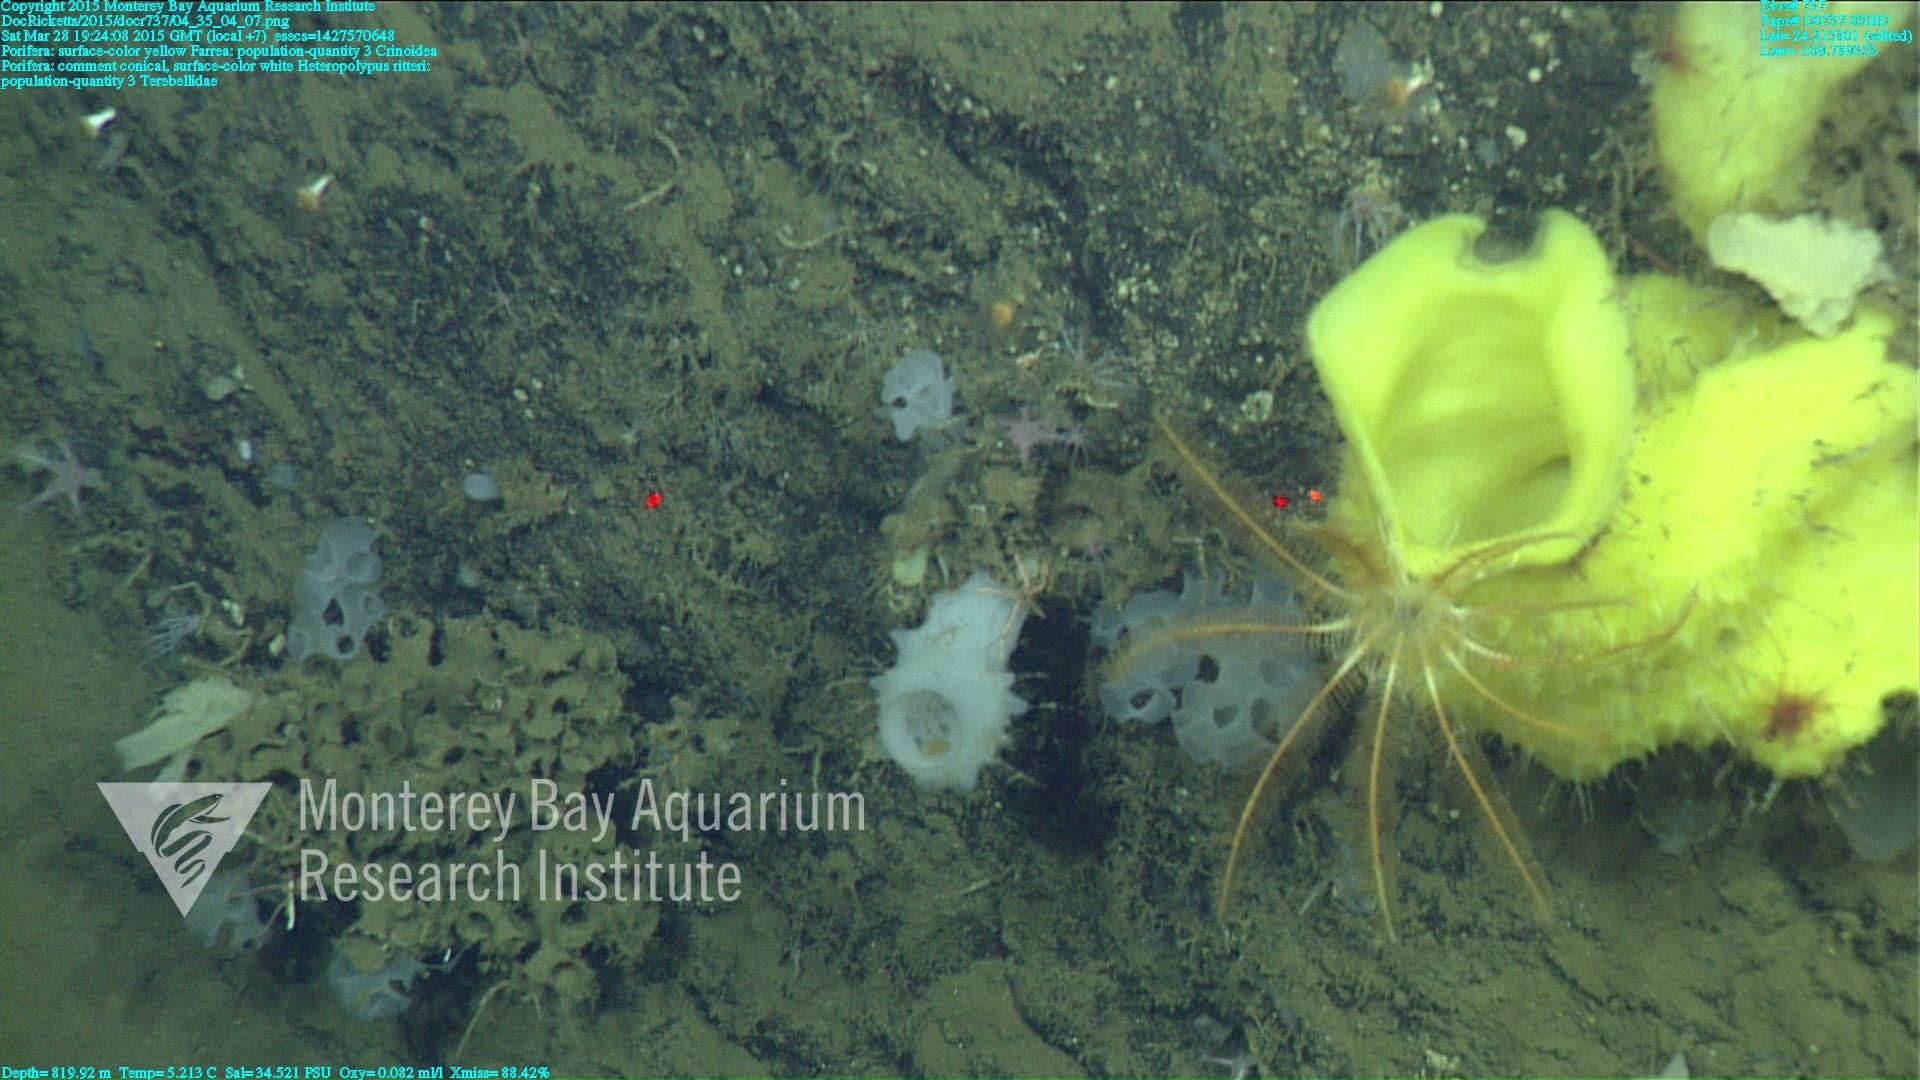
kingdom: Animalia
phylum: Cnidaria
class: Anthozoa
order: Scleralcyonacea
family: Coralliidae
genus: Heteropolypus
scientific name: Heteropolypus ritteri
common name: Ritter's soft coral
